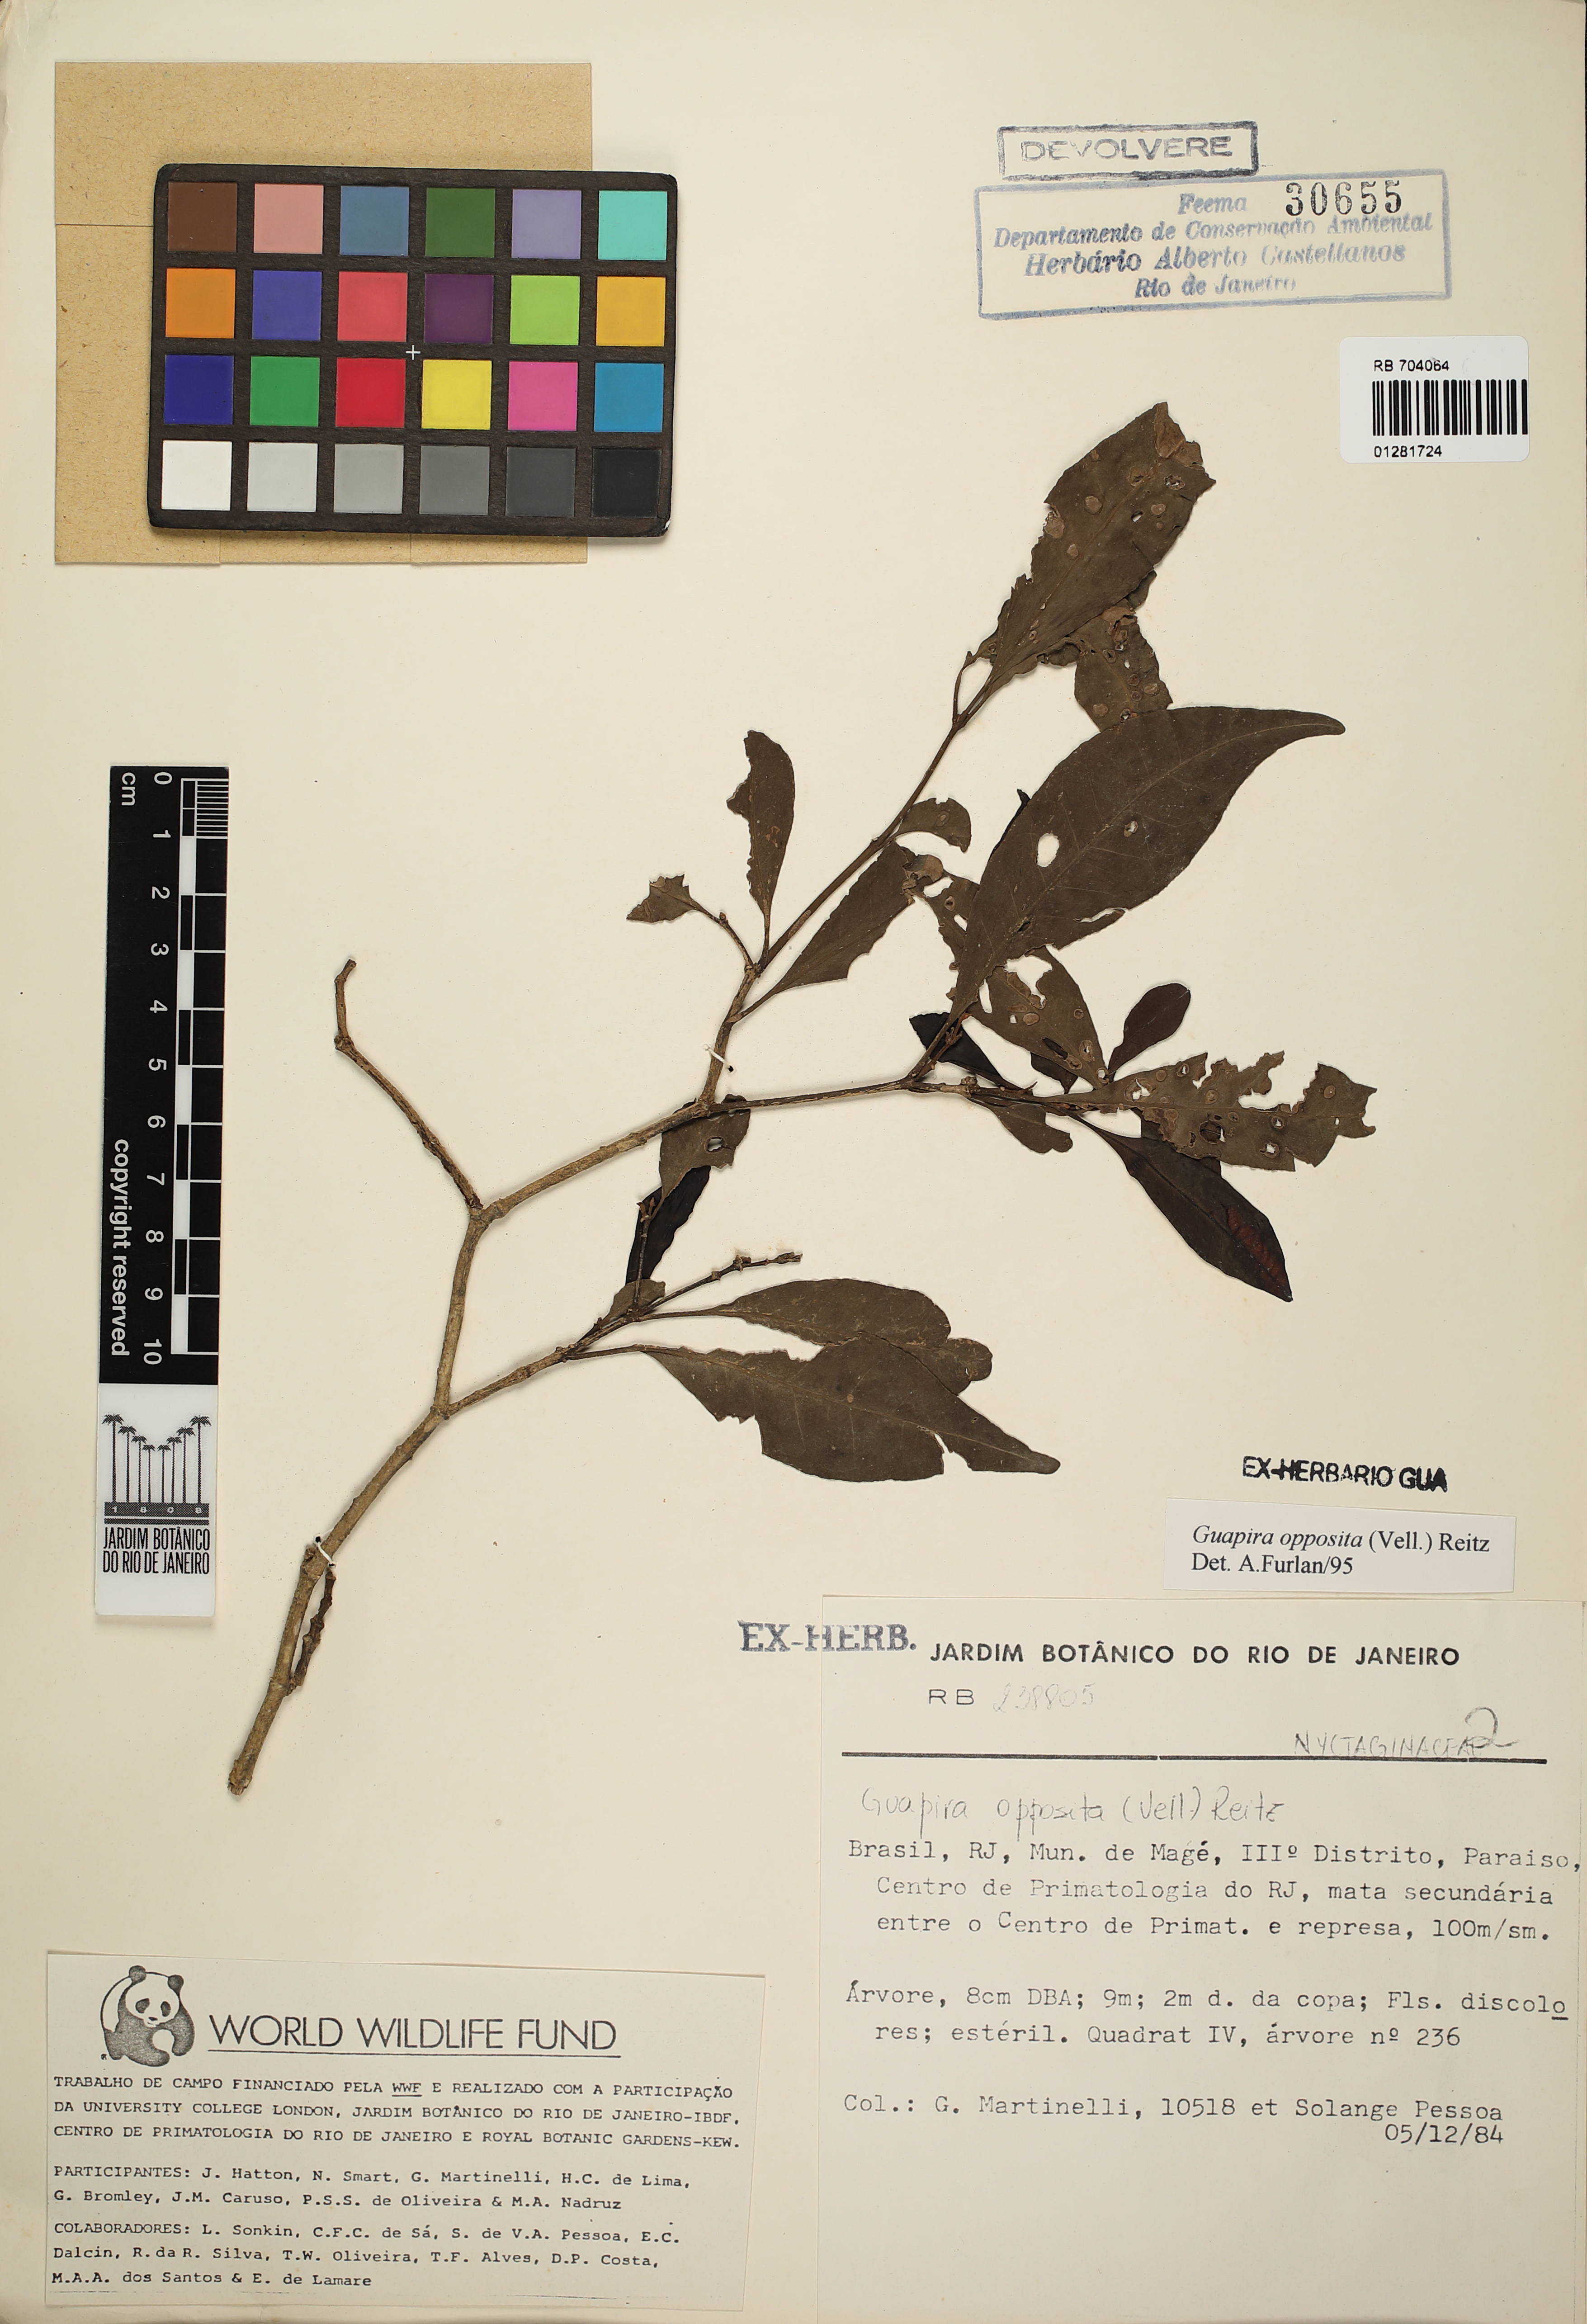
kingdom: Plantae
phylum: Tracheophyta
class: Magnoliopsida
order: Caryophyllales
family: Nyctaginaceae
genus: Guapira
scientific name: Guapira opposita
